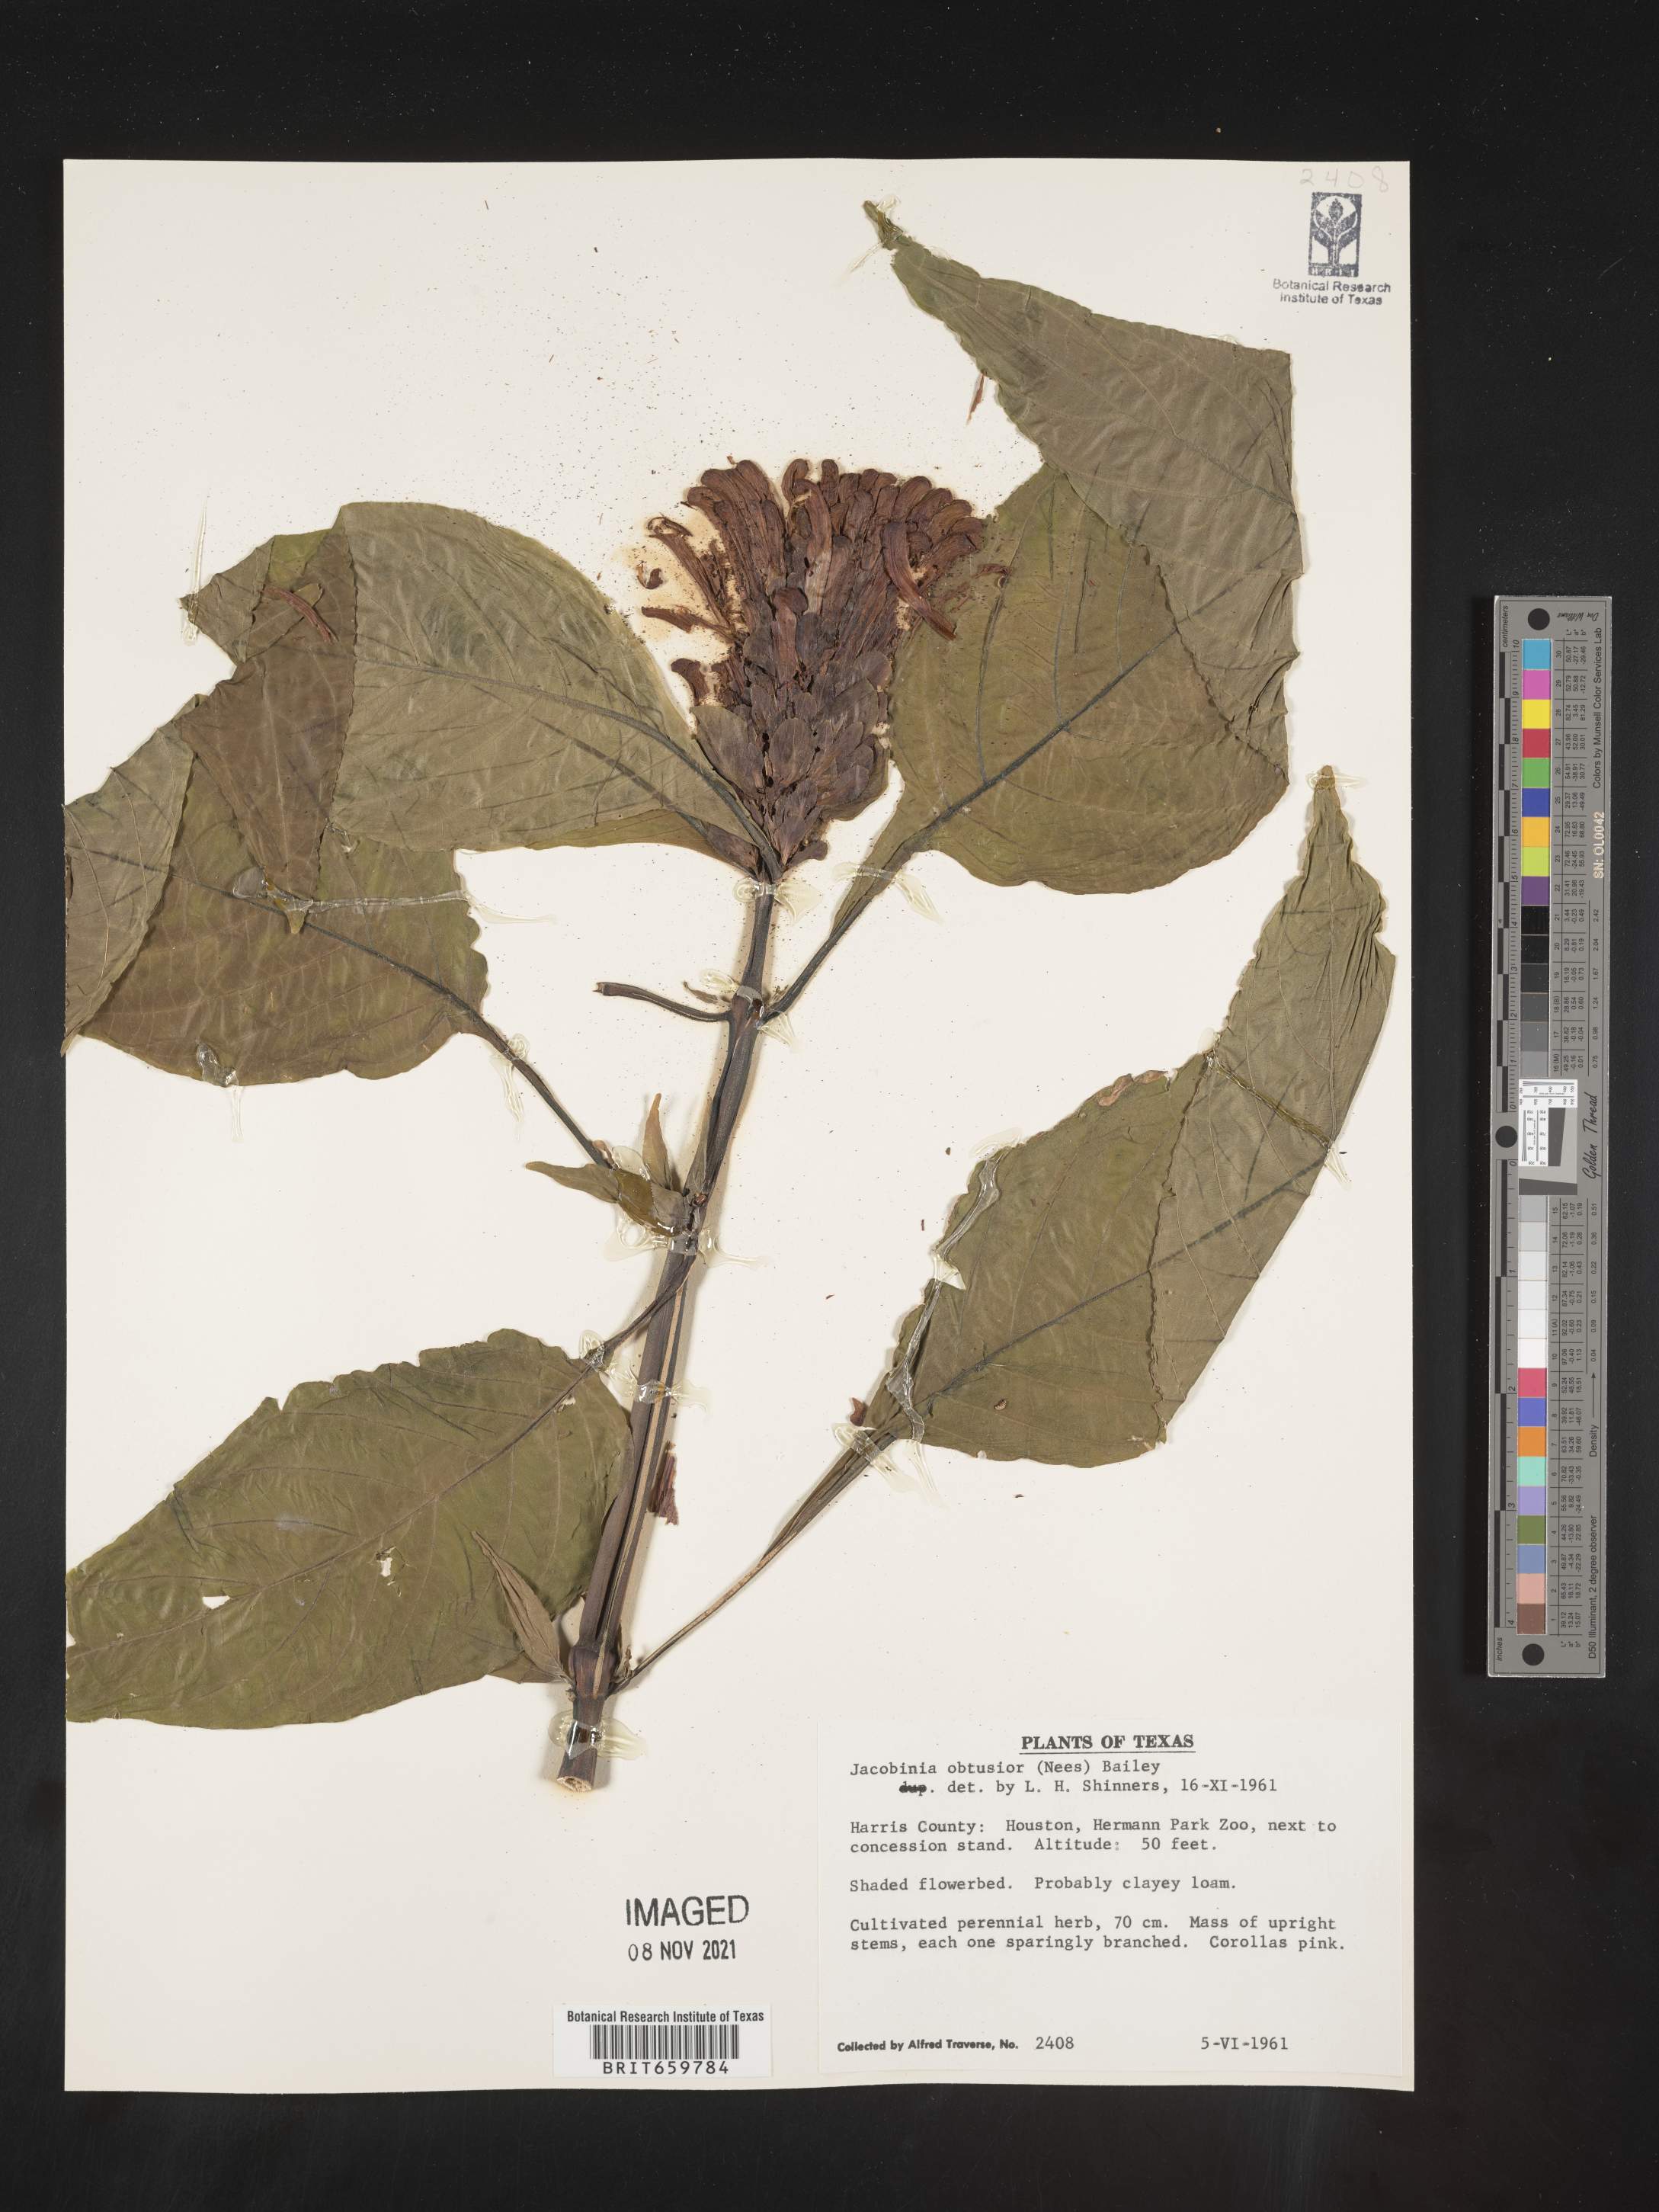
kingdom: Plantae
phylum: Tracheophyta
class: Magnoliopsida
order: Lamiales
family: Acanthaceae
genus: Justicia
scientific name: Justicia
